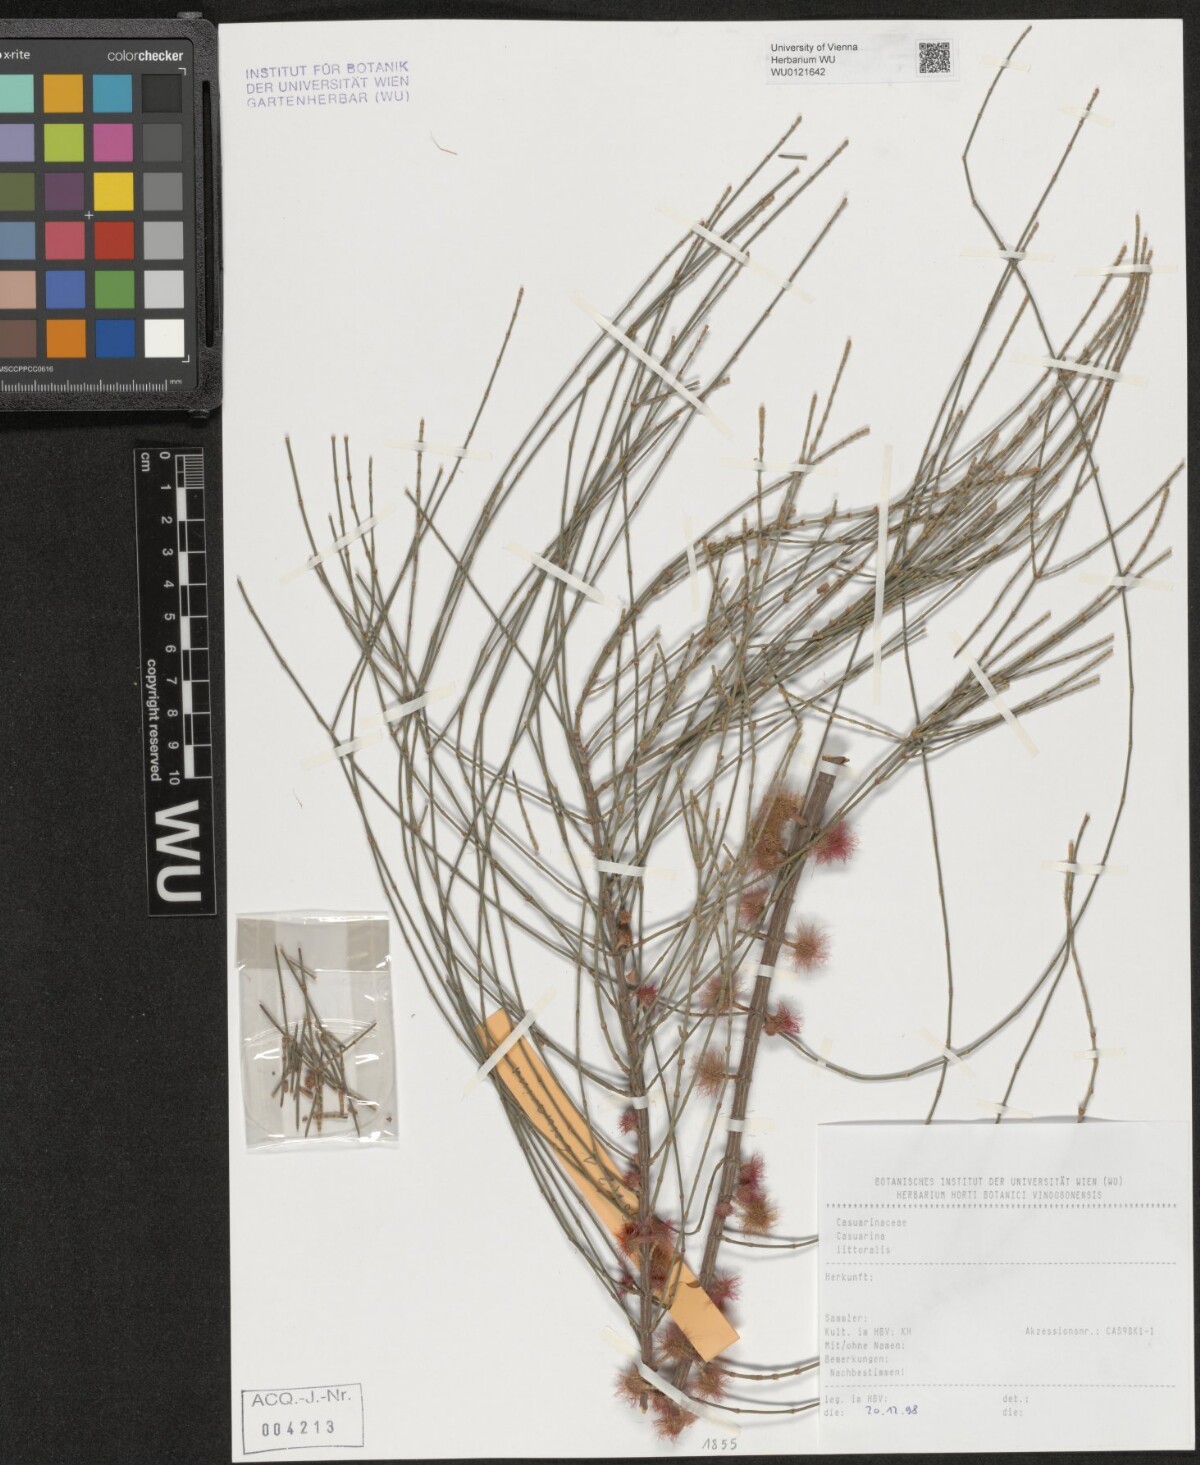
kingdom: Plantae
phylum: Tracheophyta
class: Magnoliopsida
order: Fagales
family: Casuarinaceae
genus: Allocasuarina
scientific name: Allocasuarina littoralis
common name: Black she-oak
